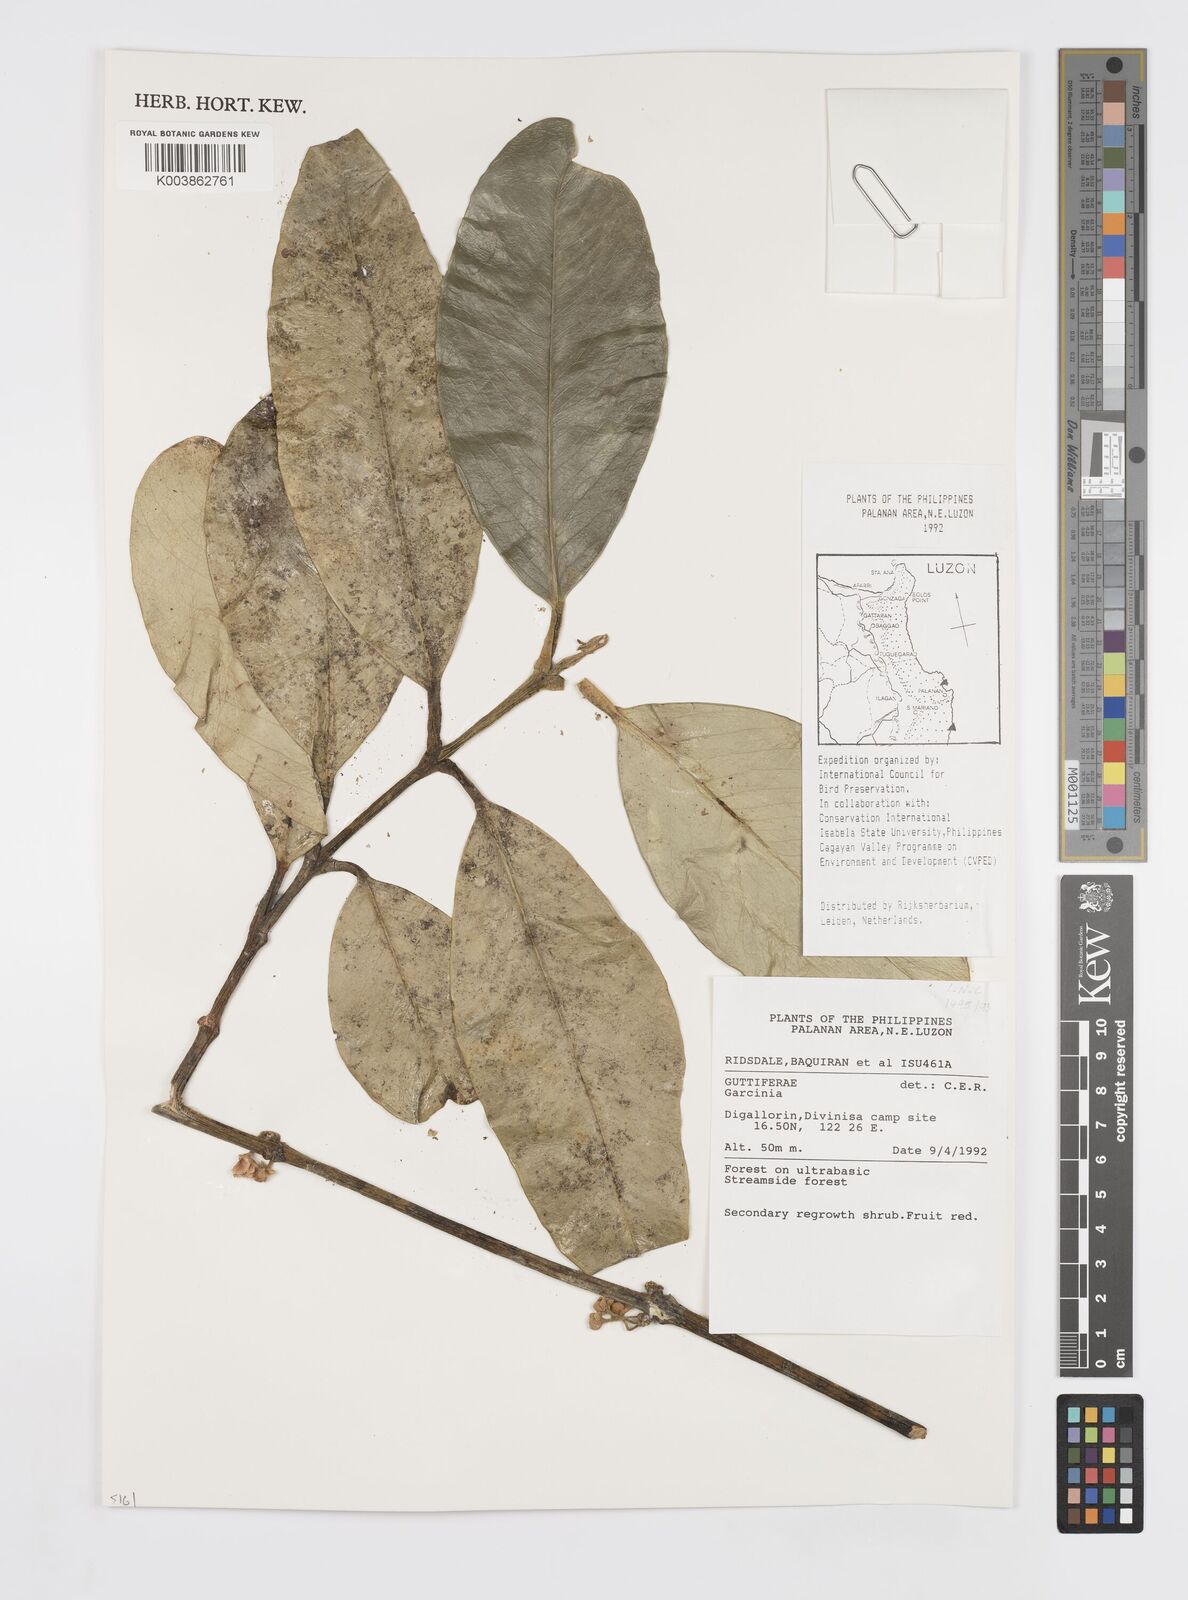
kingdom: Plantae
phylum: Tracheophyta
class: Magnoliopsida
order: Malpighiales
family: Clusiaceae
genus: Garcinia
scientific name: Garcinia
